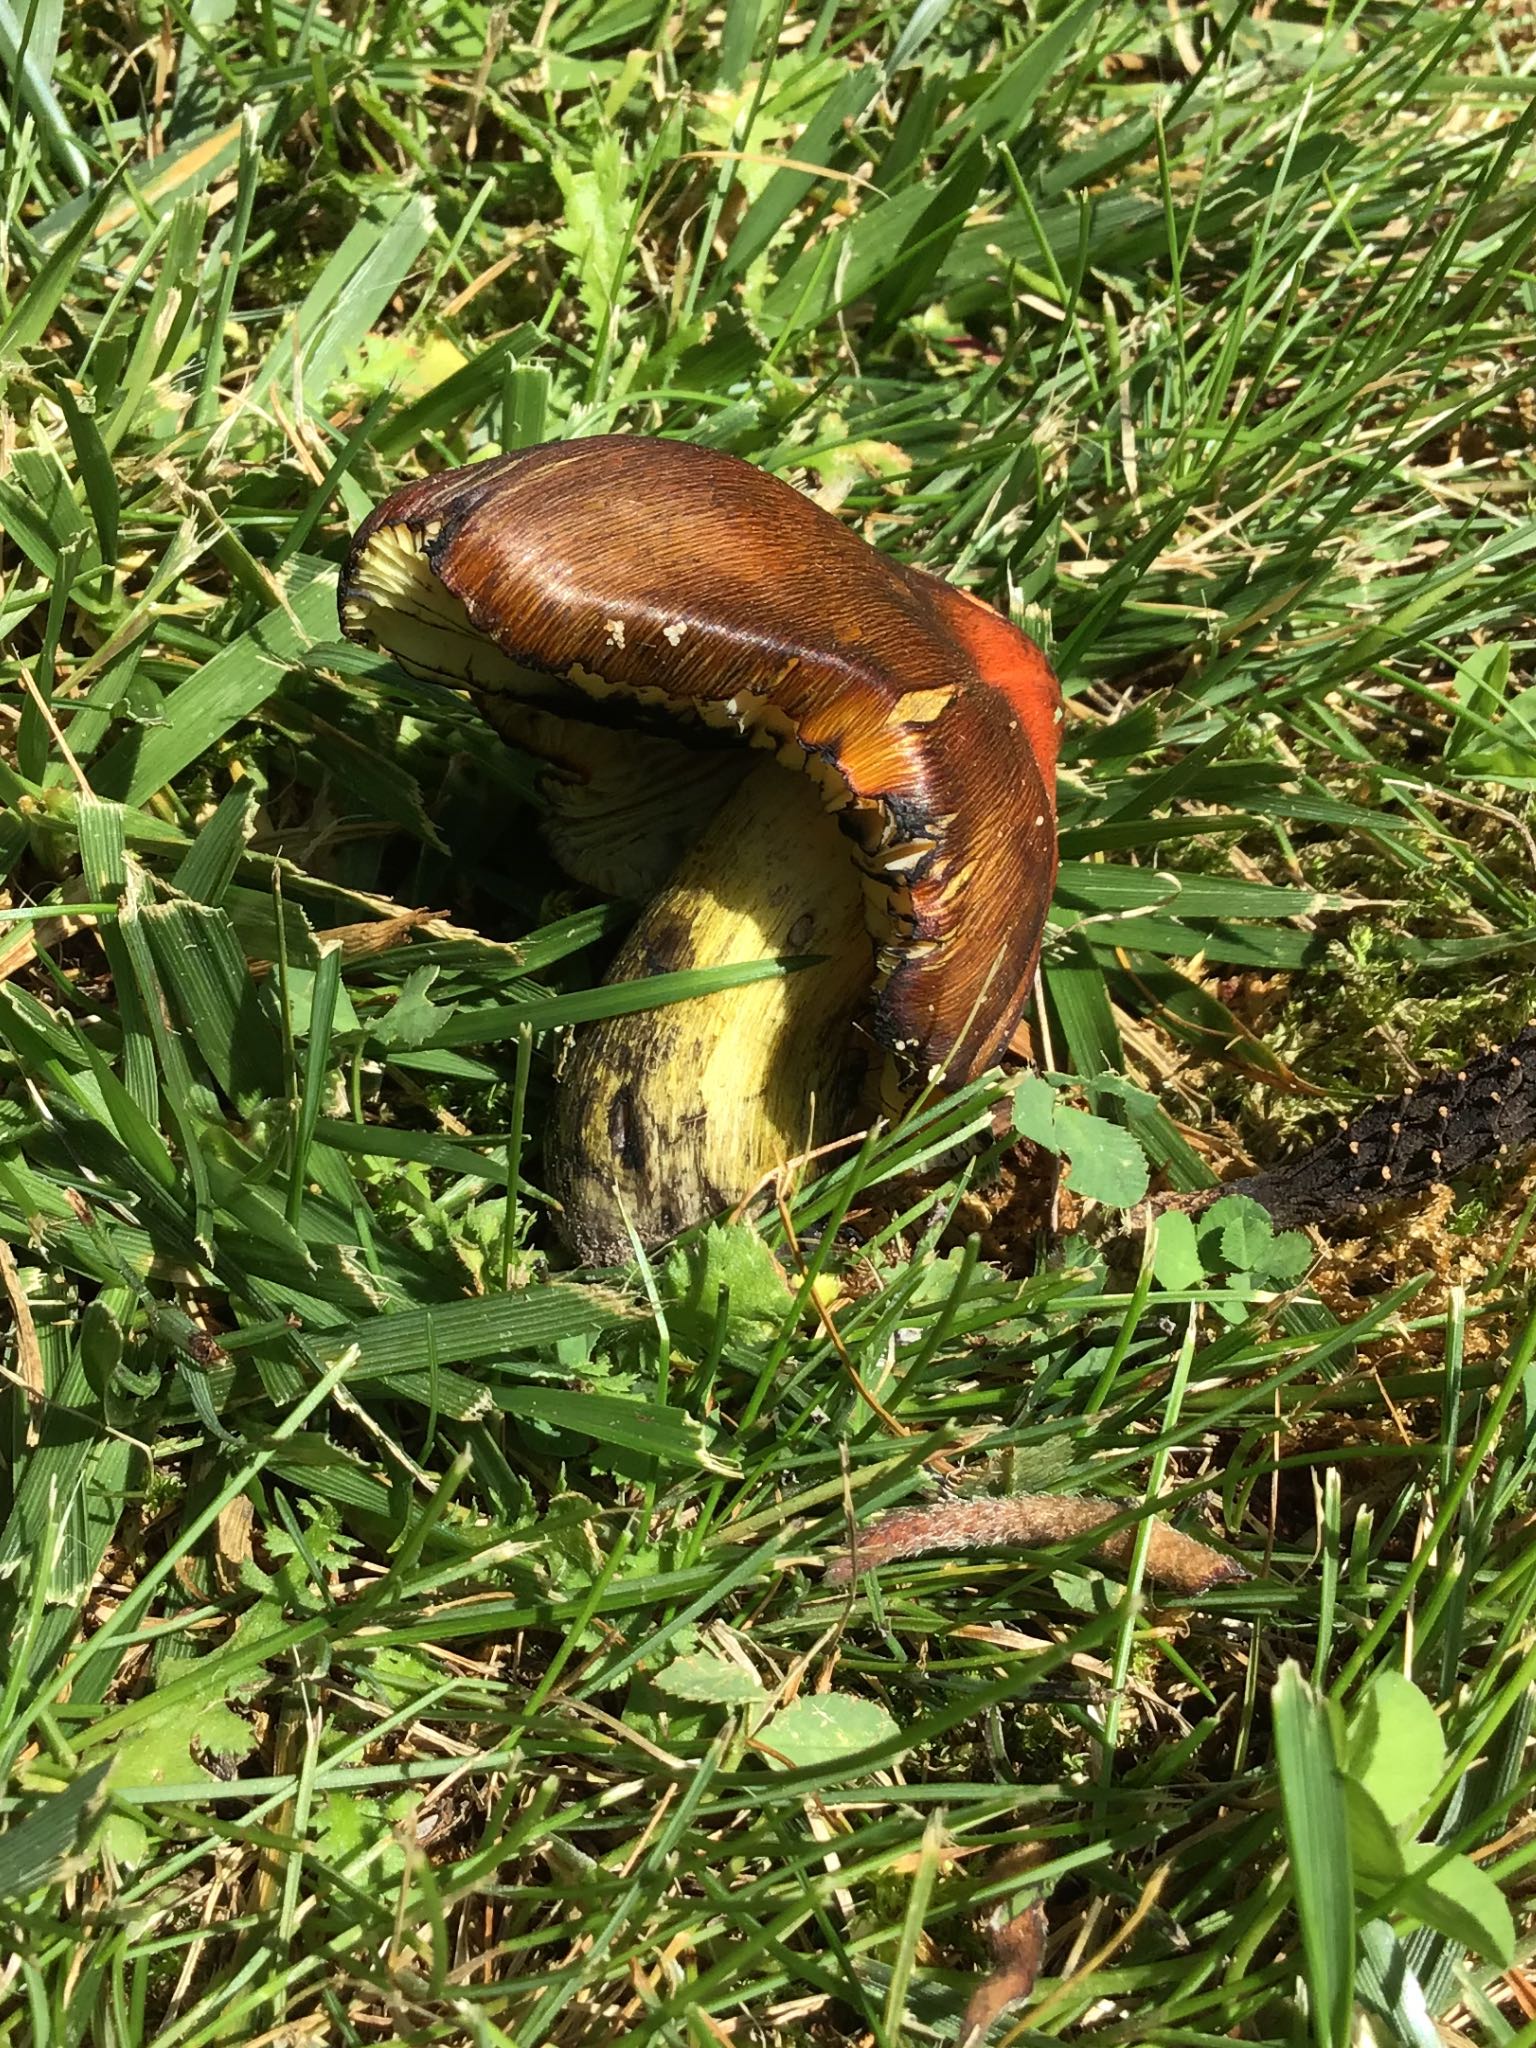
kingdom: Fungi
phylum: Basidiomycota
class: Agaricomycetes
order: Agaricales
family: Hygrophoraceae
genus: Hygrocybe
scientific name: Hygrocybe conica
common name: kegle-vokshat
